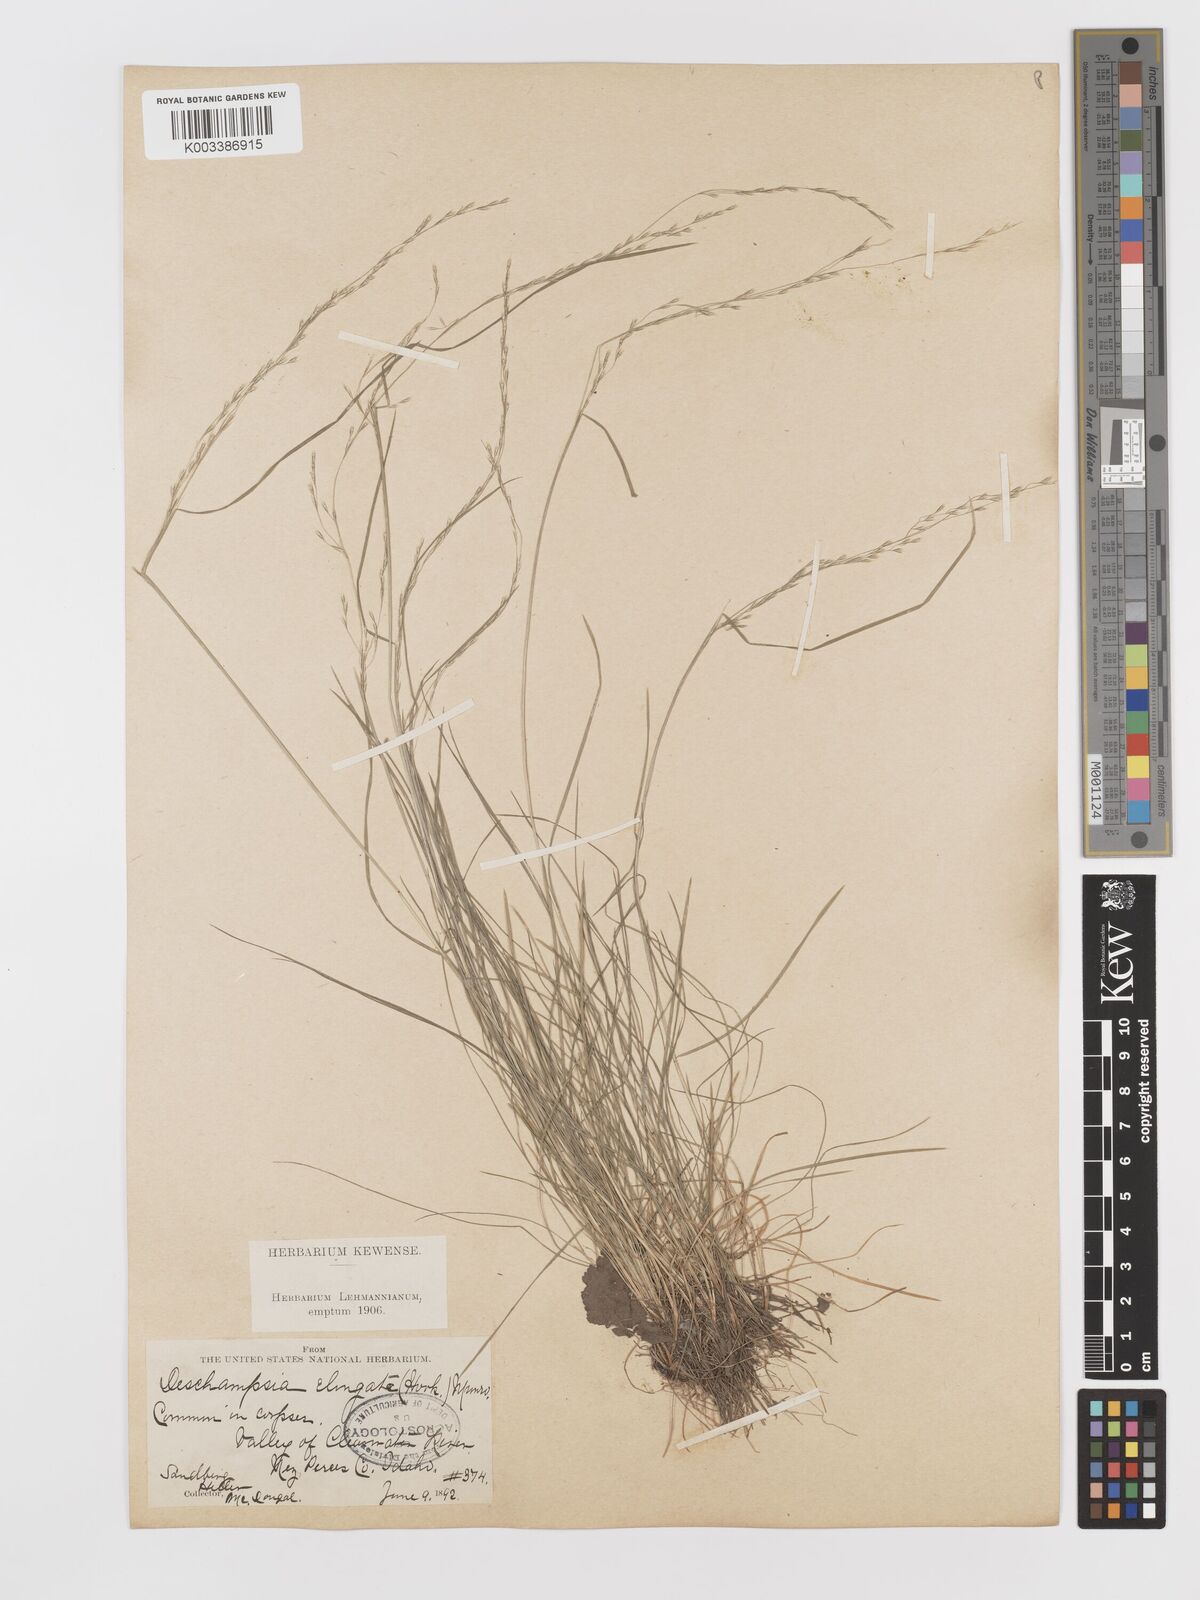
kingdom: Plantae
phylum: Tracheophyta
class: Liliopsida
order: Poales
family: Poaceae
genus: Deschampsia
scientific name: Deschampsia elongata
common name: Slender hairgrass
